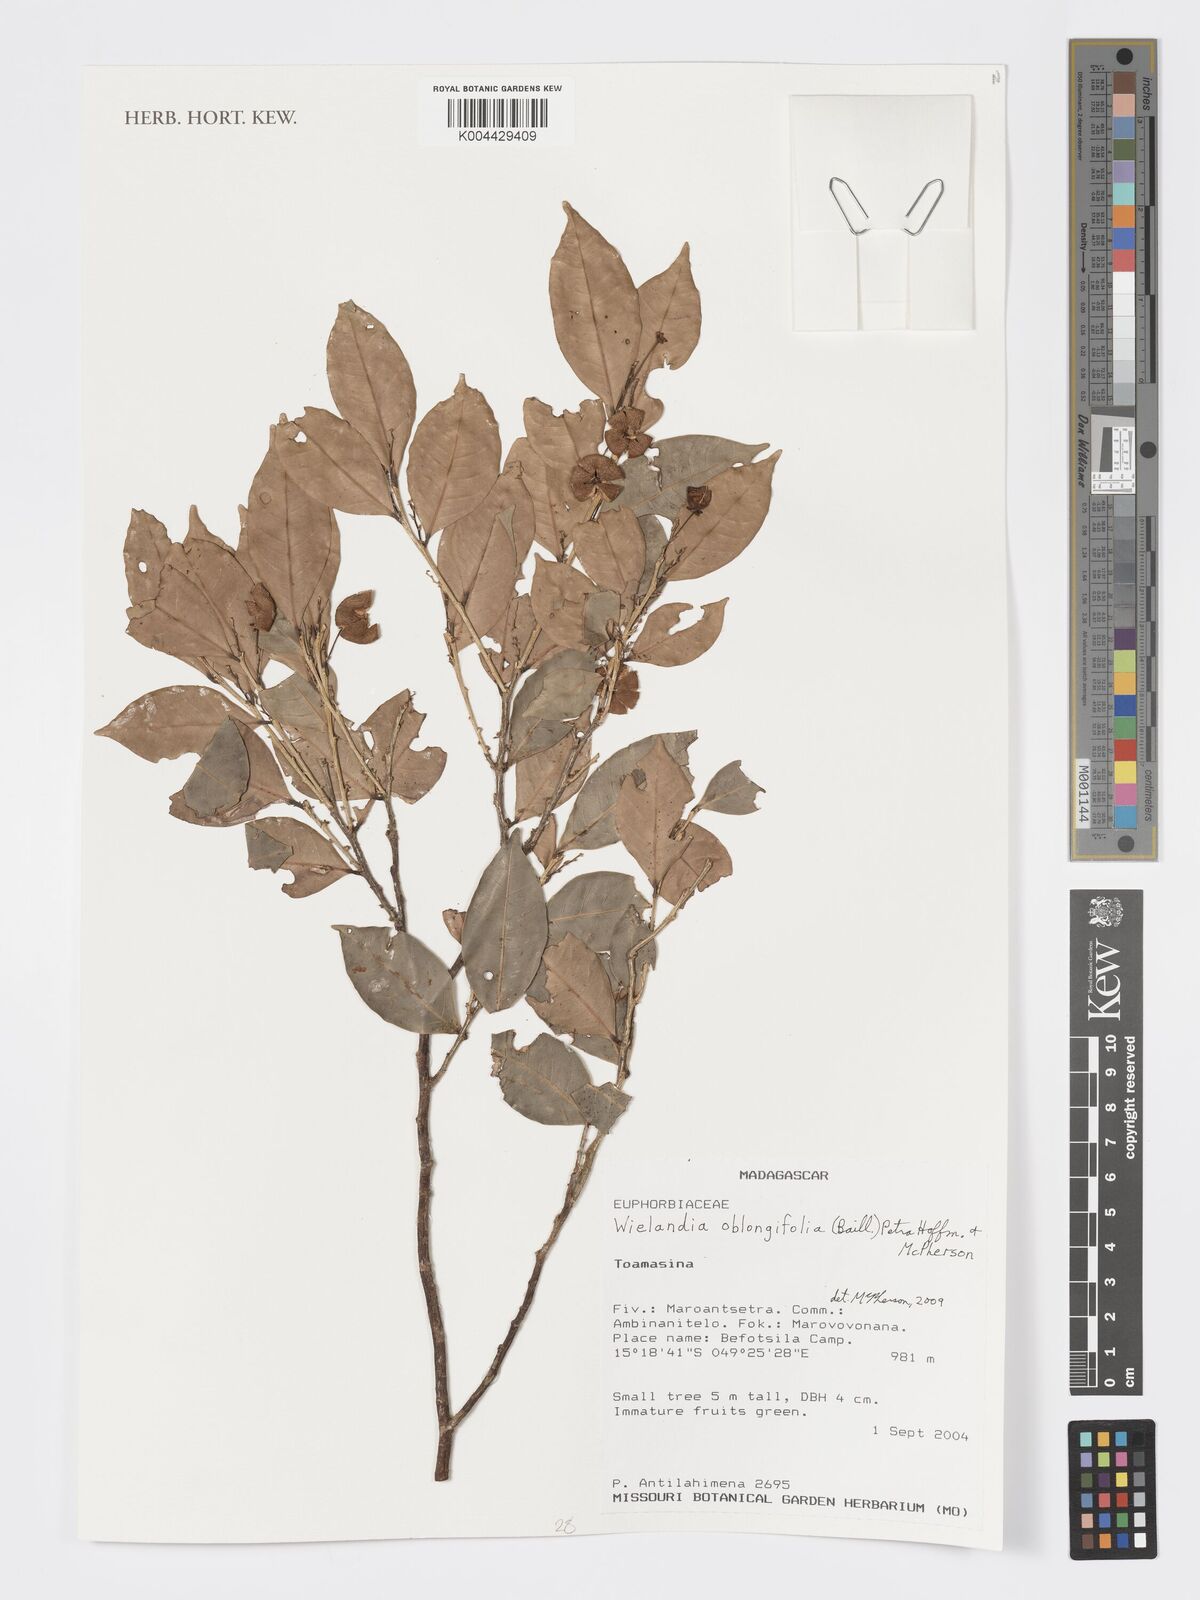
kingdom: Plantae
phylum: Tracheophyta
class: Magnoliopsida
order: Malpighiales
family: Phyllanthaceae
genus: Wielandia
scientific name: Wielandia oblongifolia
